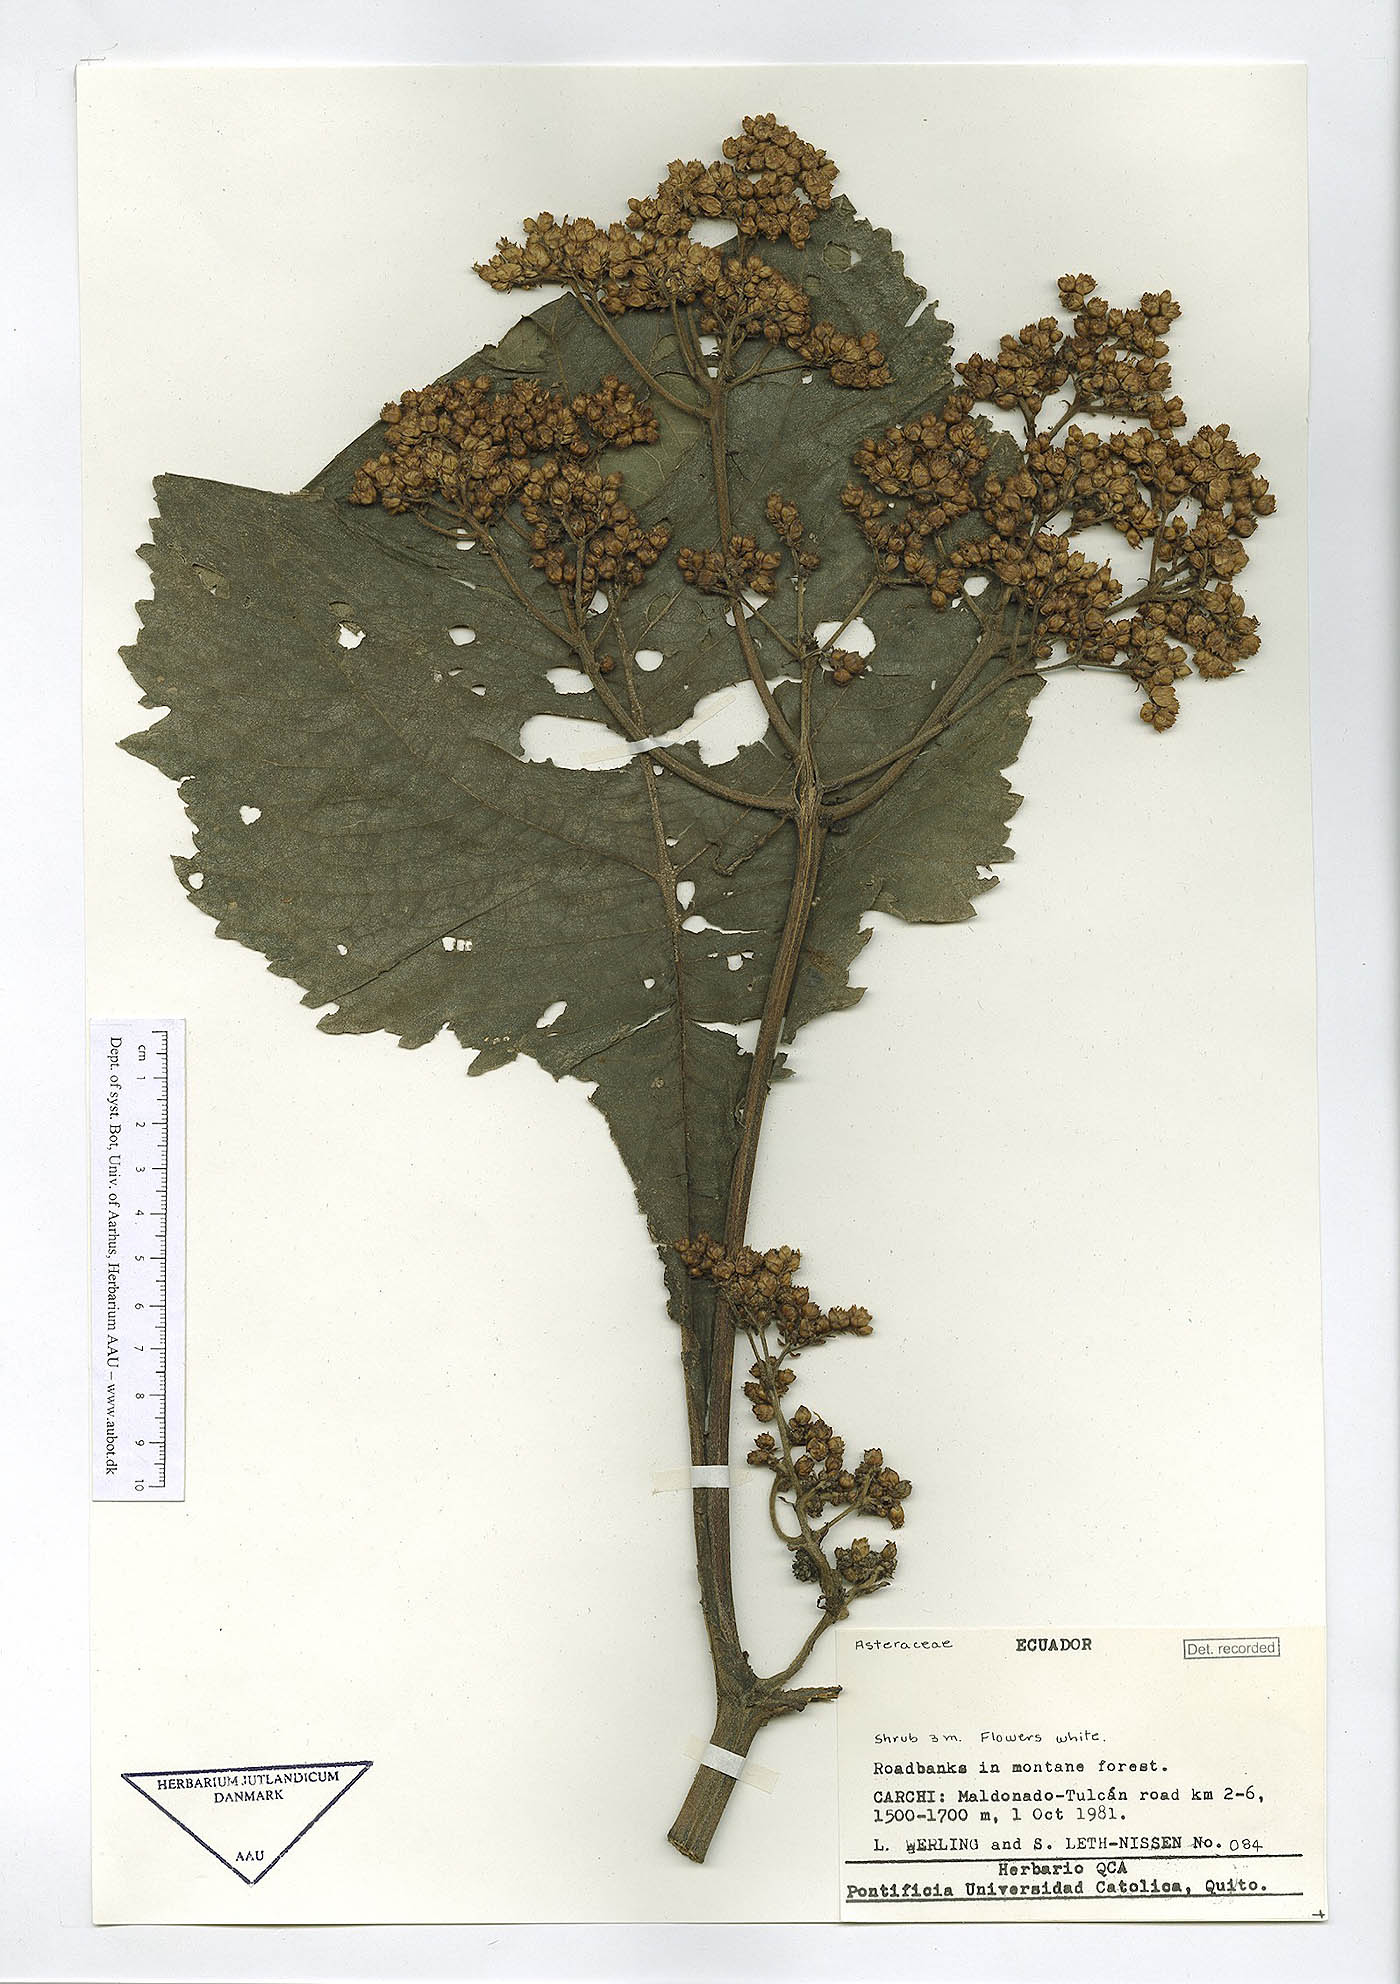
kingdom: Plantae
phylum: Tracheophyta
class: Magnoliopsida
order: Asterales
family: Asteraceae
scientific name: Asteraceae
